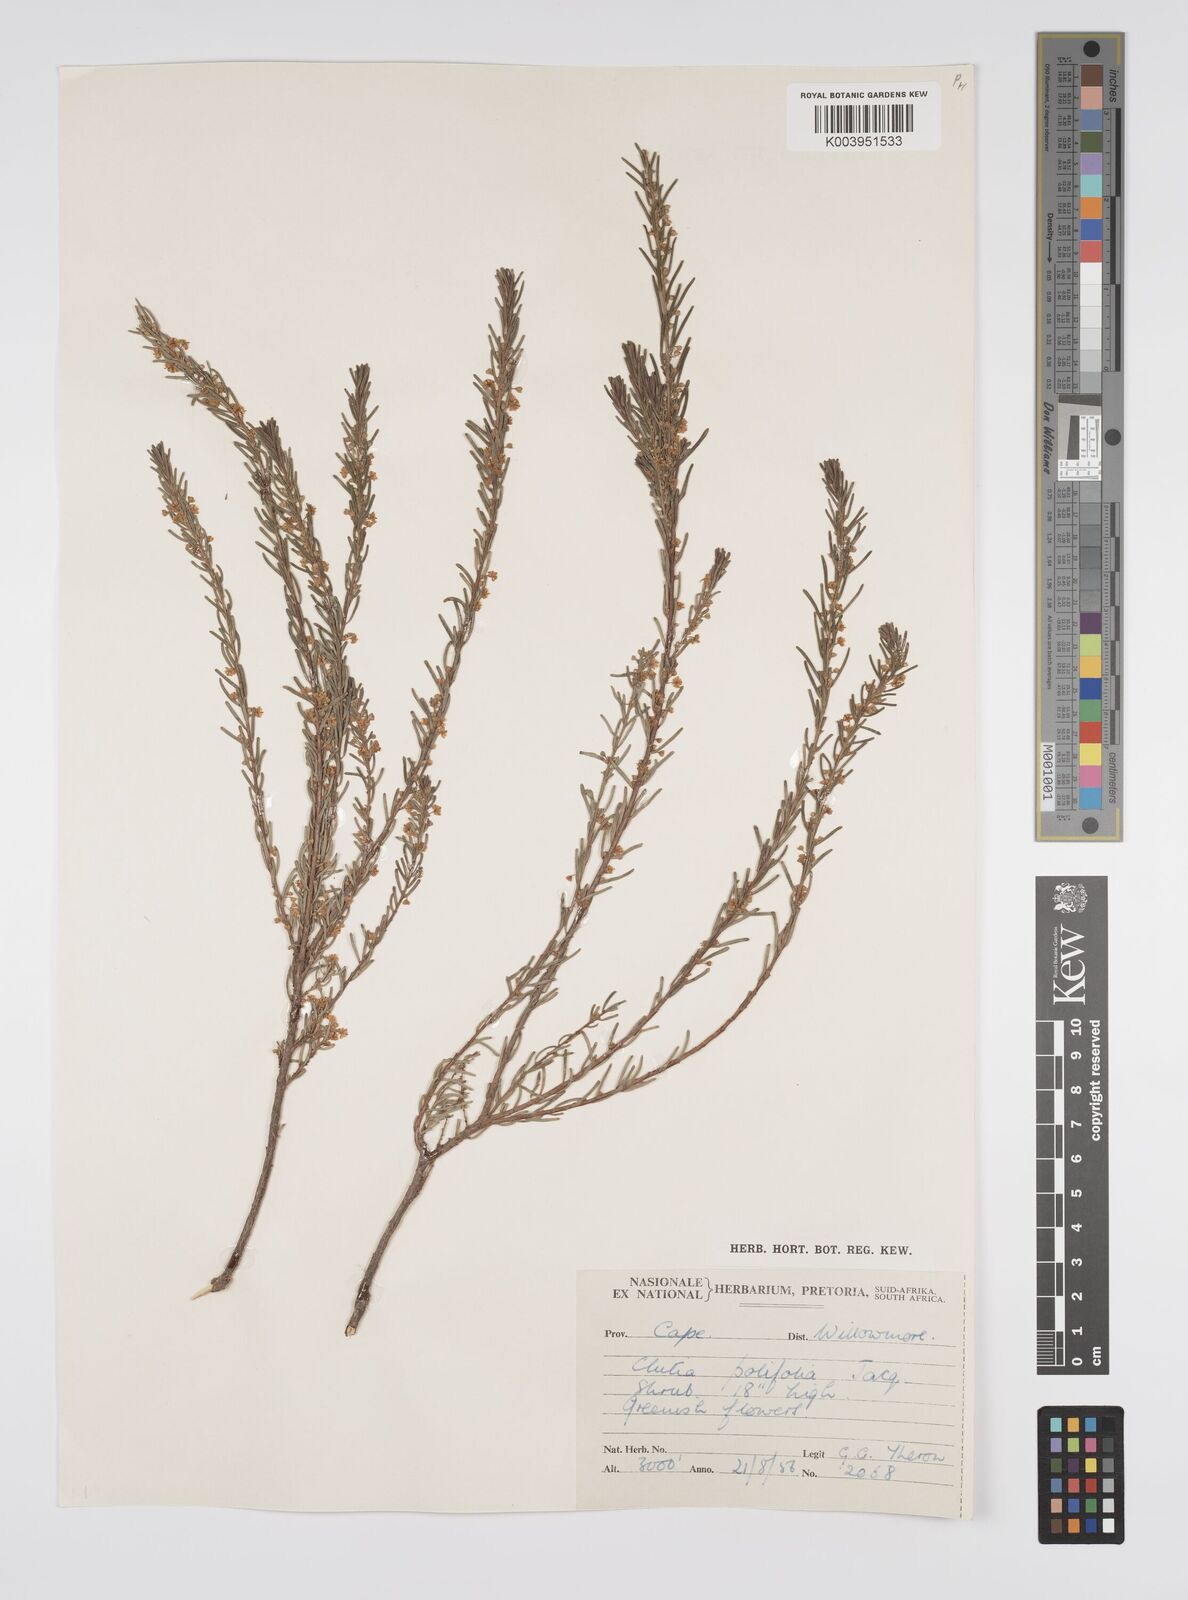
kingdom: Plantae
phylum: Tracheophyta
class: Magnoliopsida
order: Malpighiales
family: Peraceae
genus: Clutia
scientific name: Clutia
